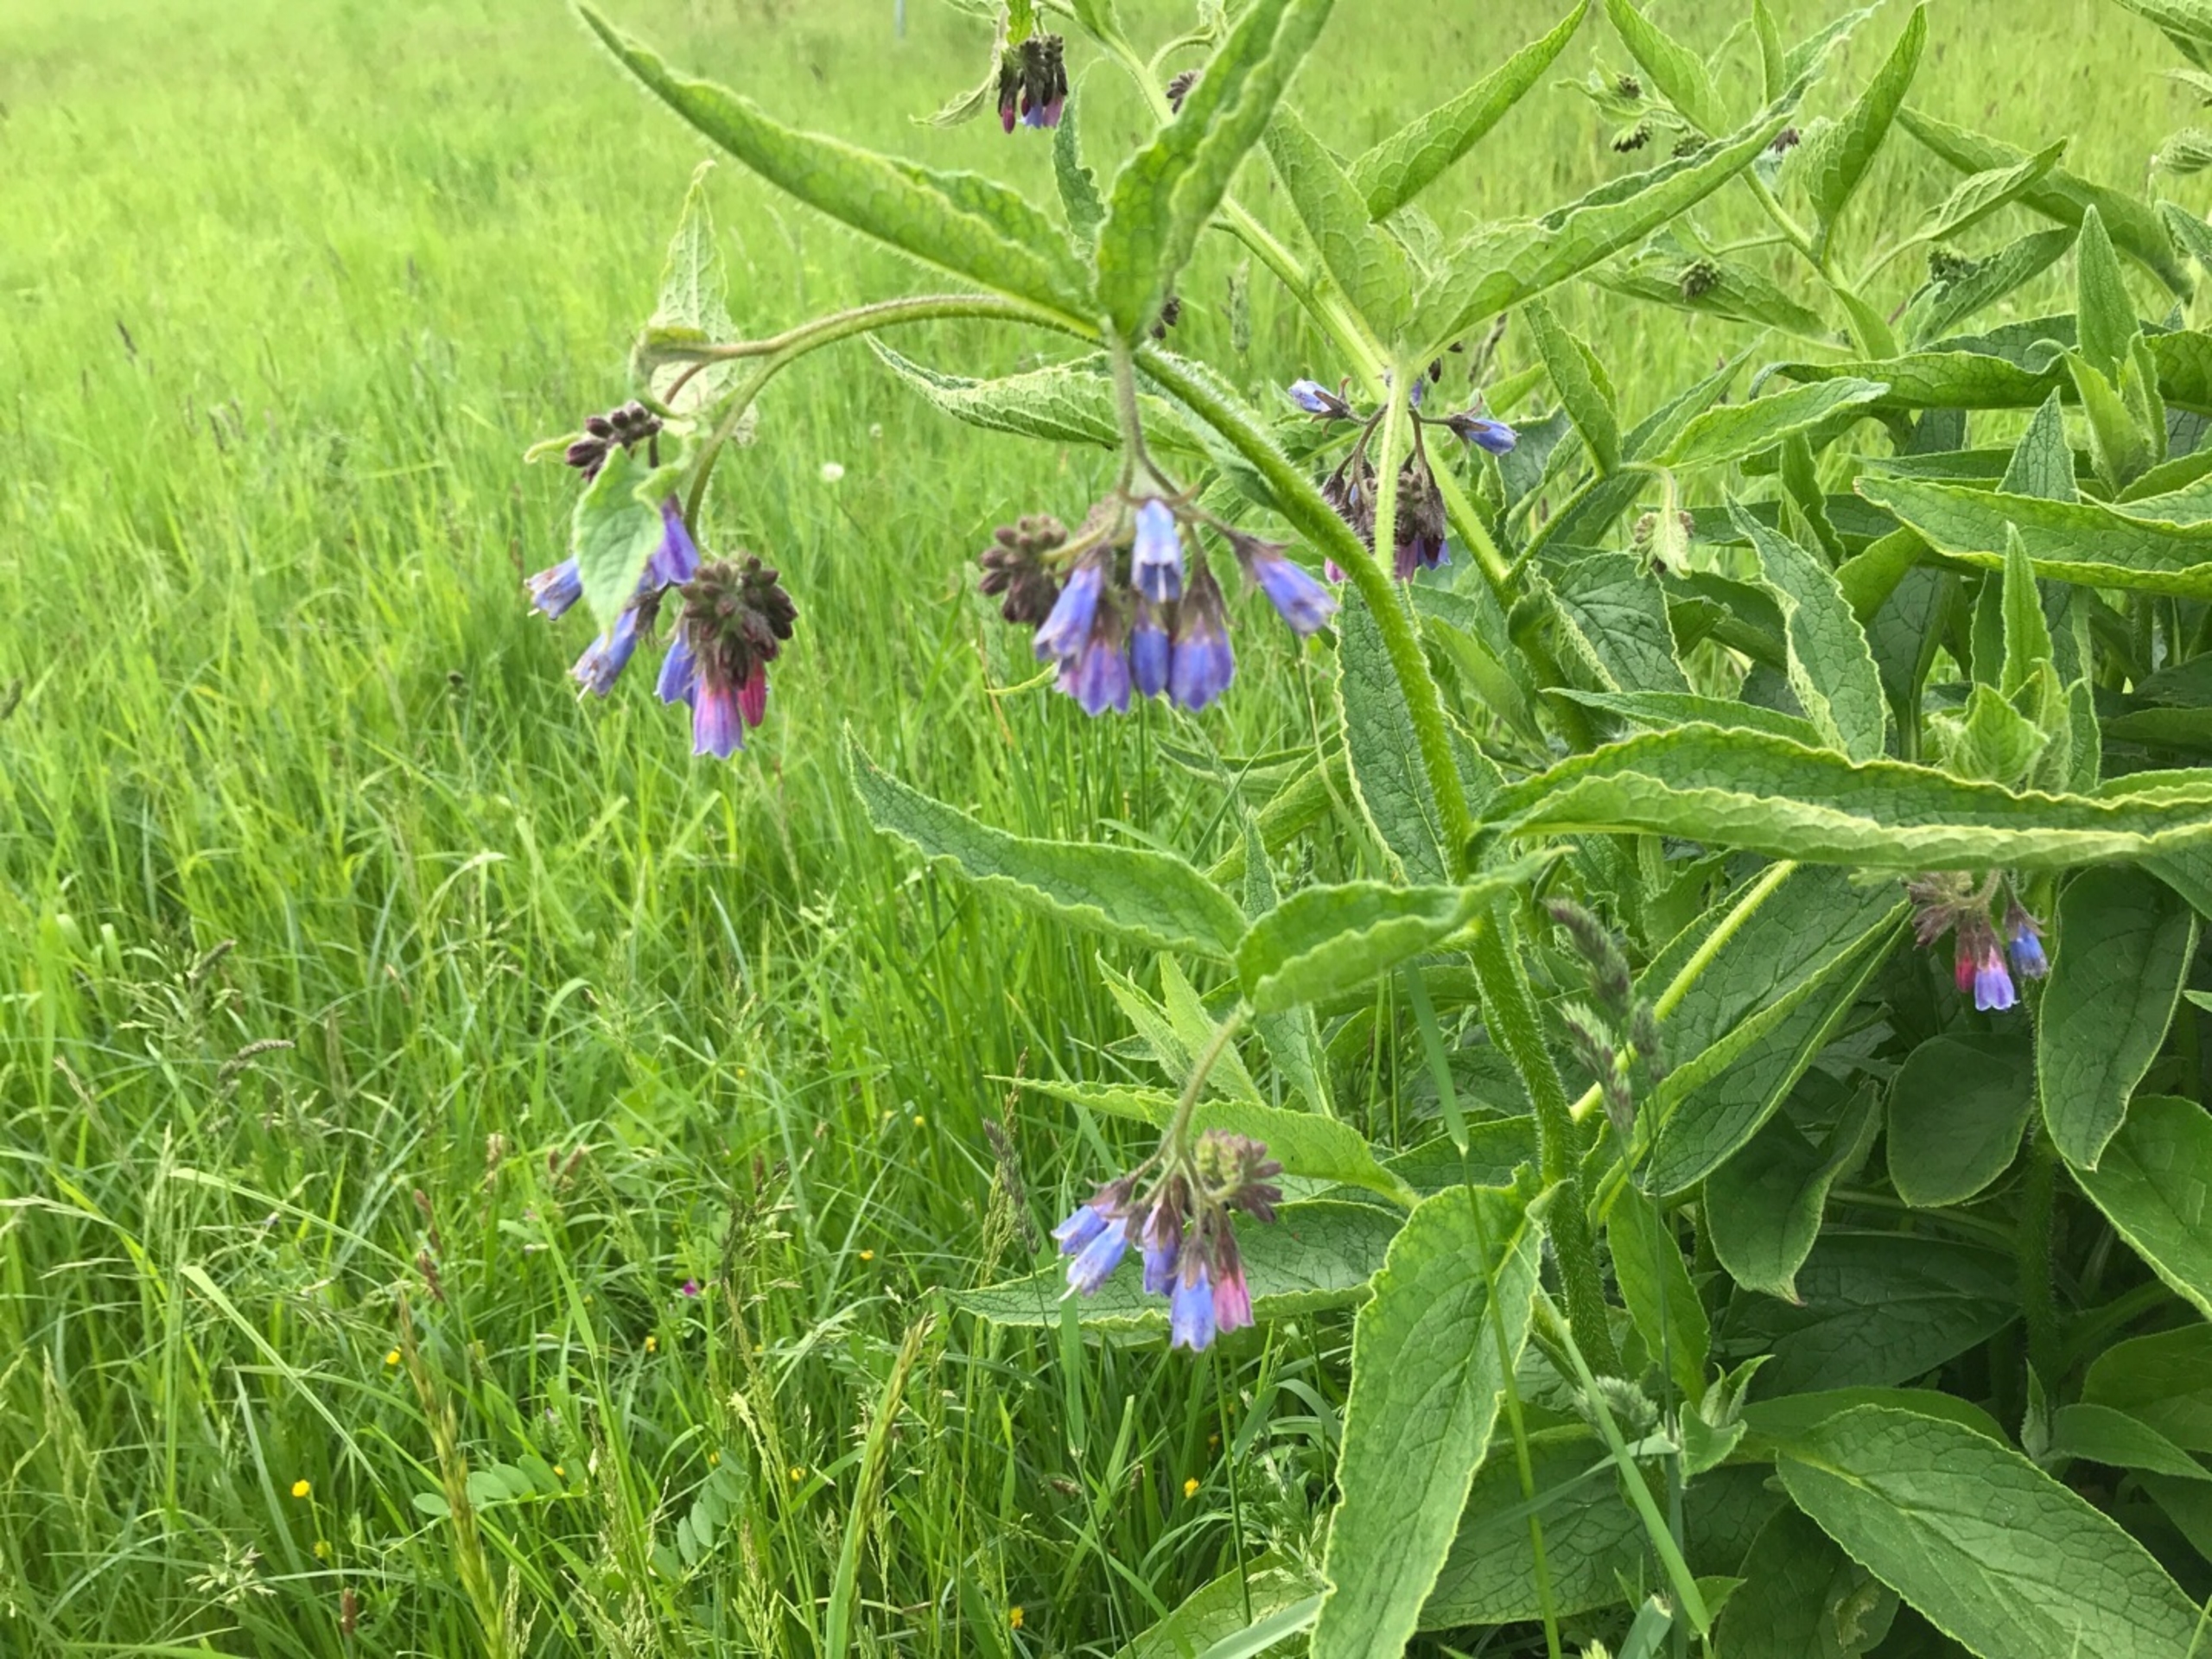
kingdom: Plantae
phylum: Tracheophyta
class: Magnoliopsida
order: Boraginales
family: Boraginaceae
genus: Symphytum
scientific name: Symphytum uplandicum
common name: Foder-kulsukker
